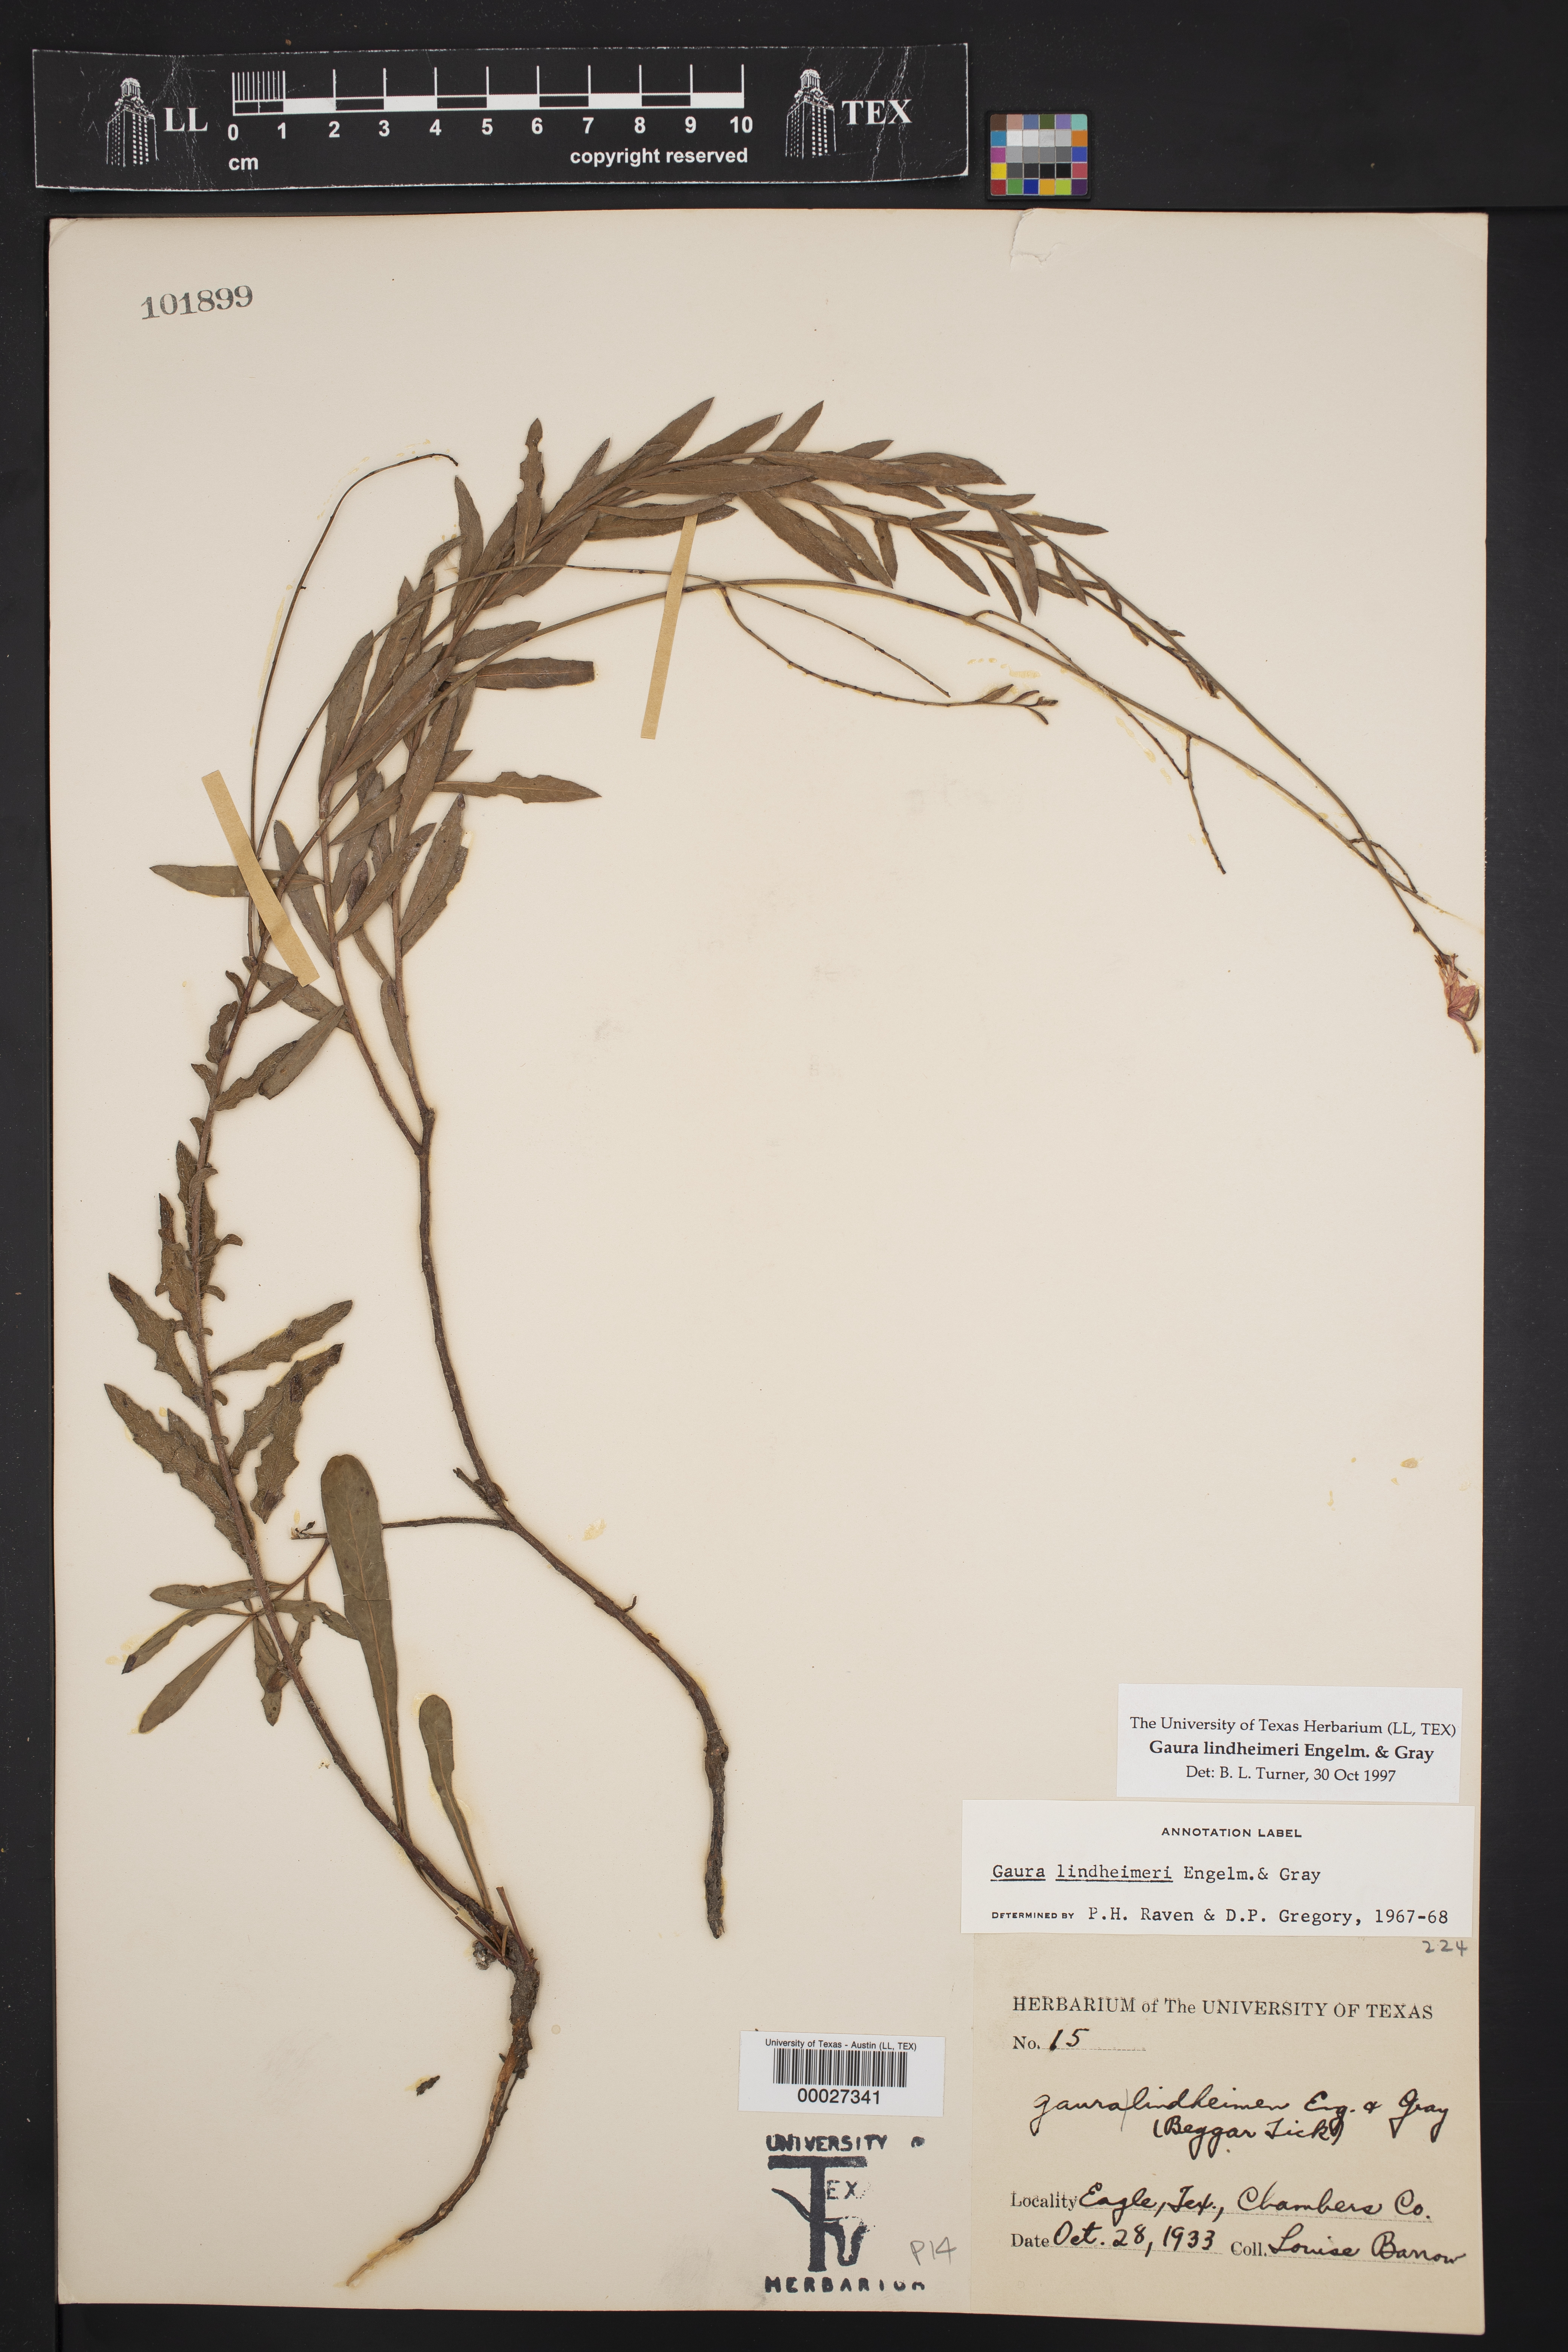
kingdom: Plantae
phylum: Tracheophyta
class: Magnoliopsida
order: Myrtales
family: Onagraceae
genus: Oenothera
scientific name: Oenothera lindheimeri
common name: Lindheimer's beeblossom
